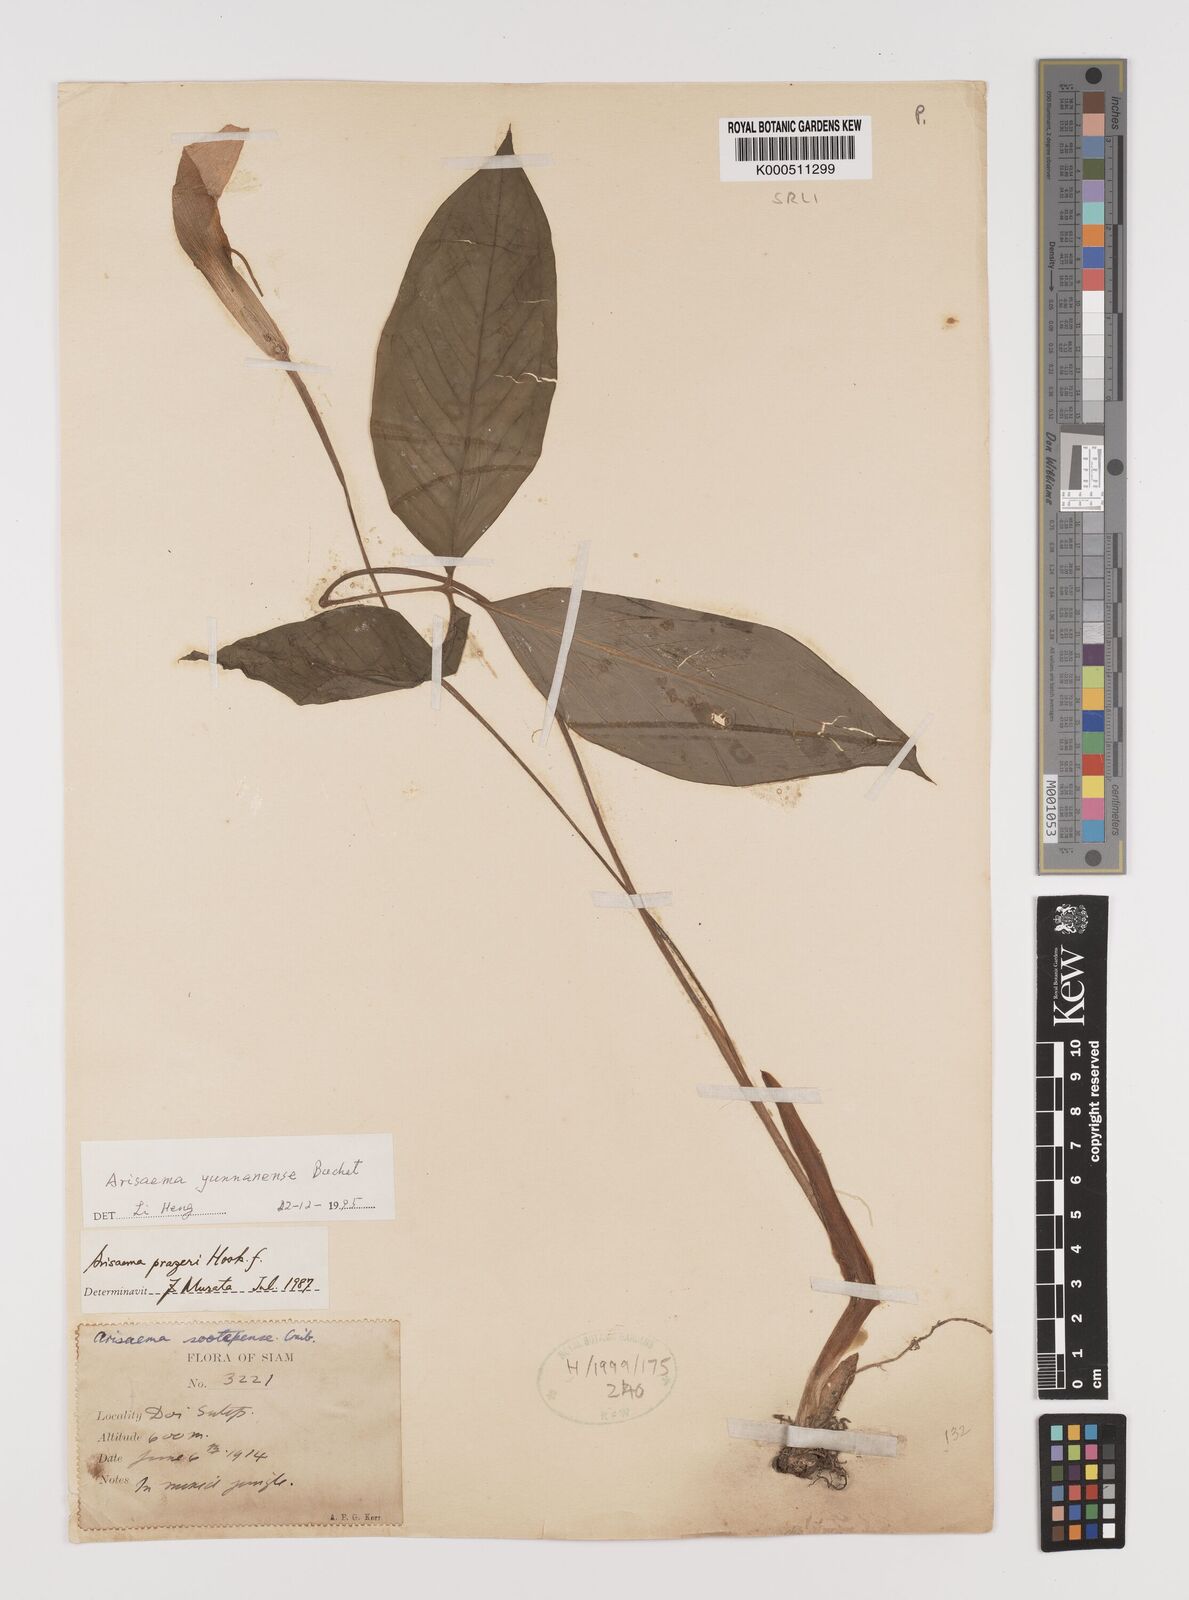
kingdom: Plantae
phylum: Tracheophyta
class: Liliopsida
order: Alismatales
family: Araceae
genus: Arisaema
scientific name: Arisaema yunnanense
